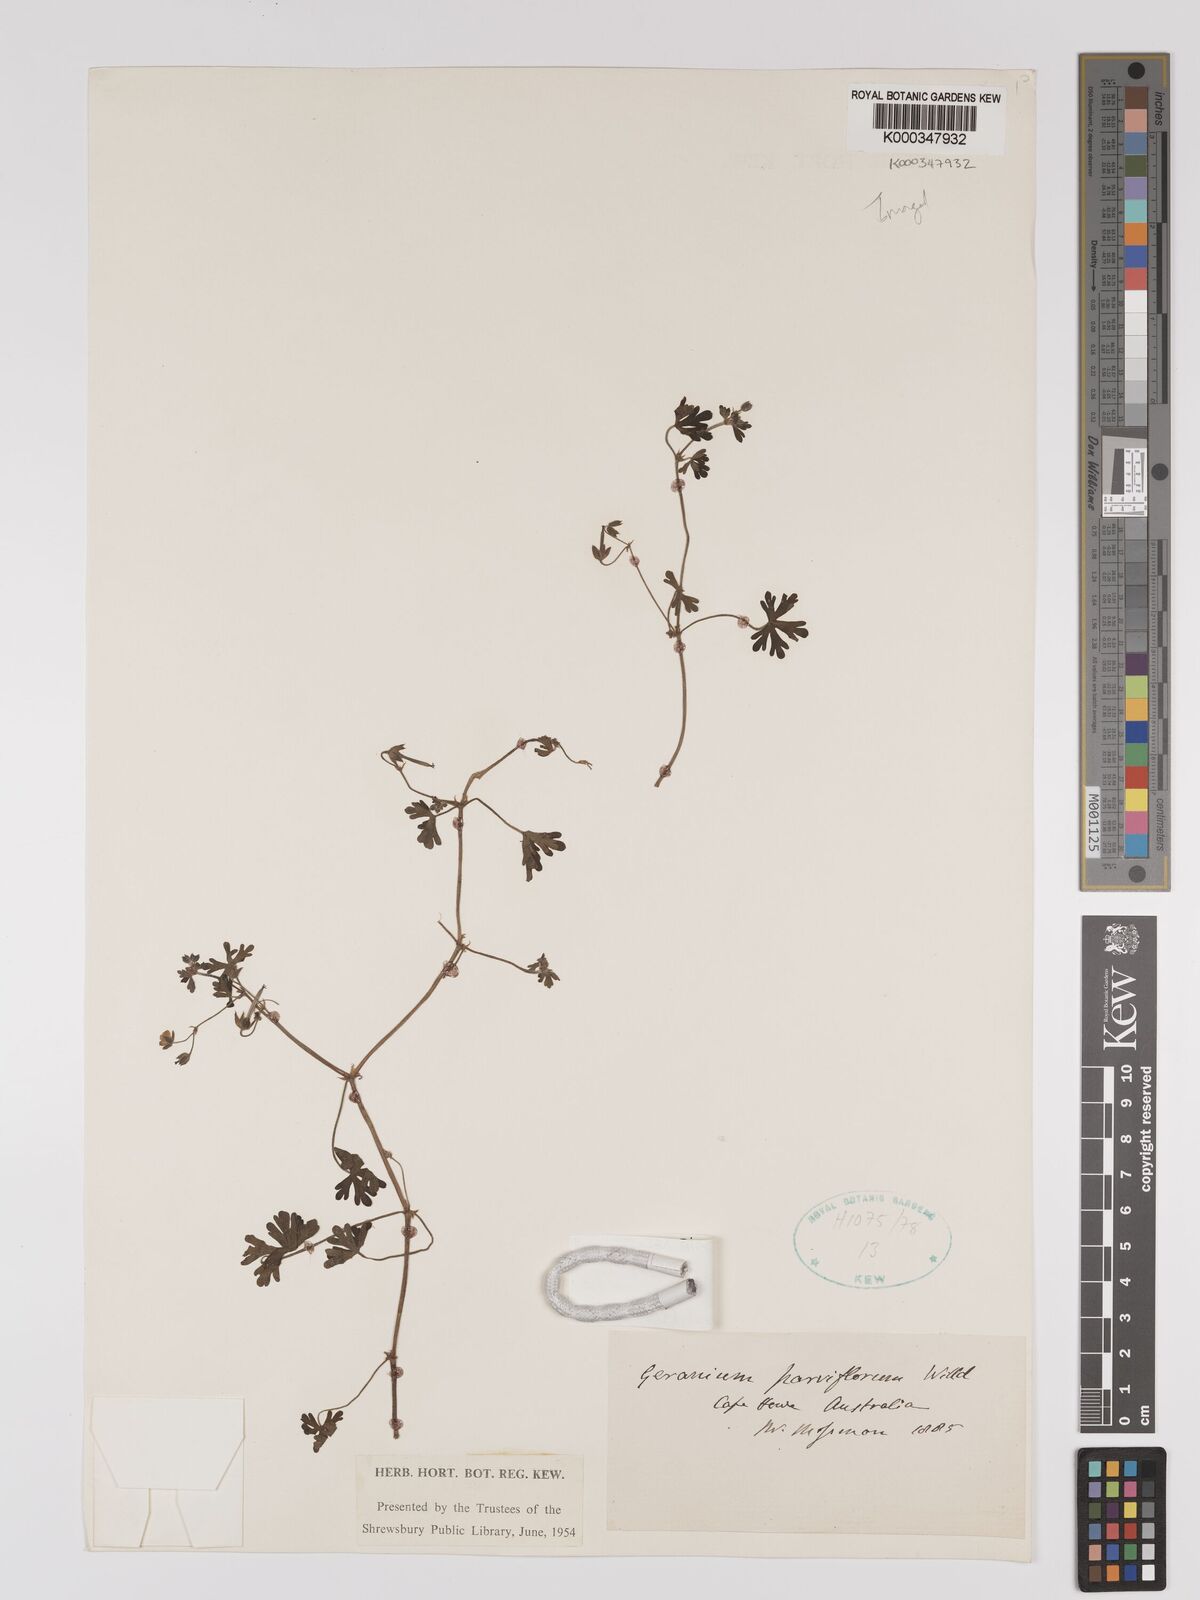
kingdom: Plantae
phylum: Tracheophyta
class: Magnoliopsida
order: Geraniales
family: Geraniaceae
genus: Geranium
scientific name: Geranium retrorsum
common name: New zealand geranium
